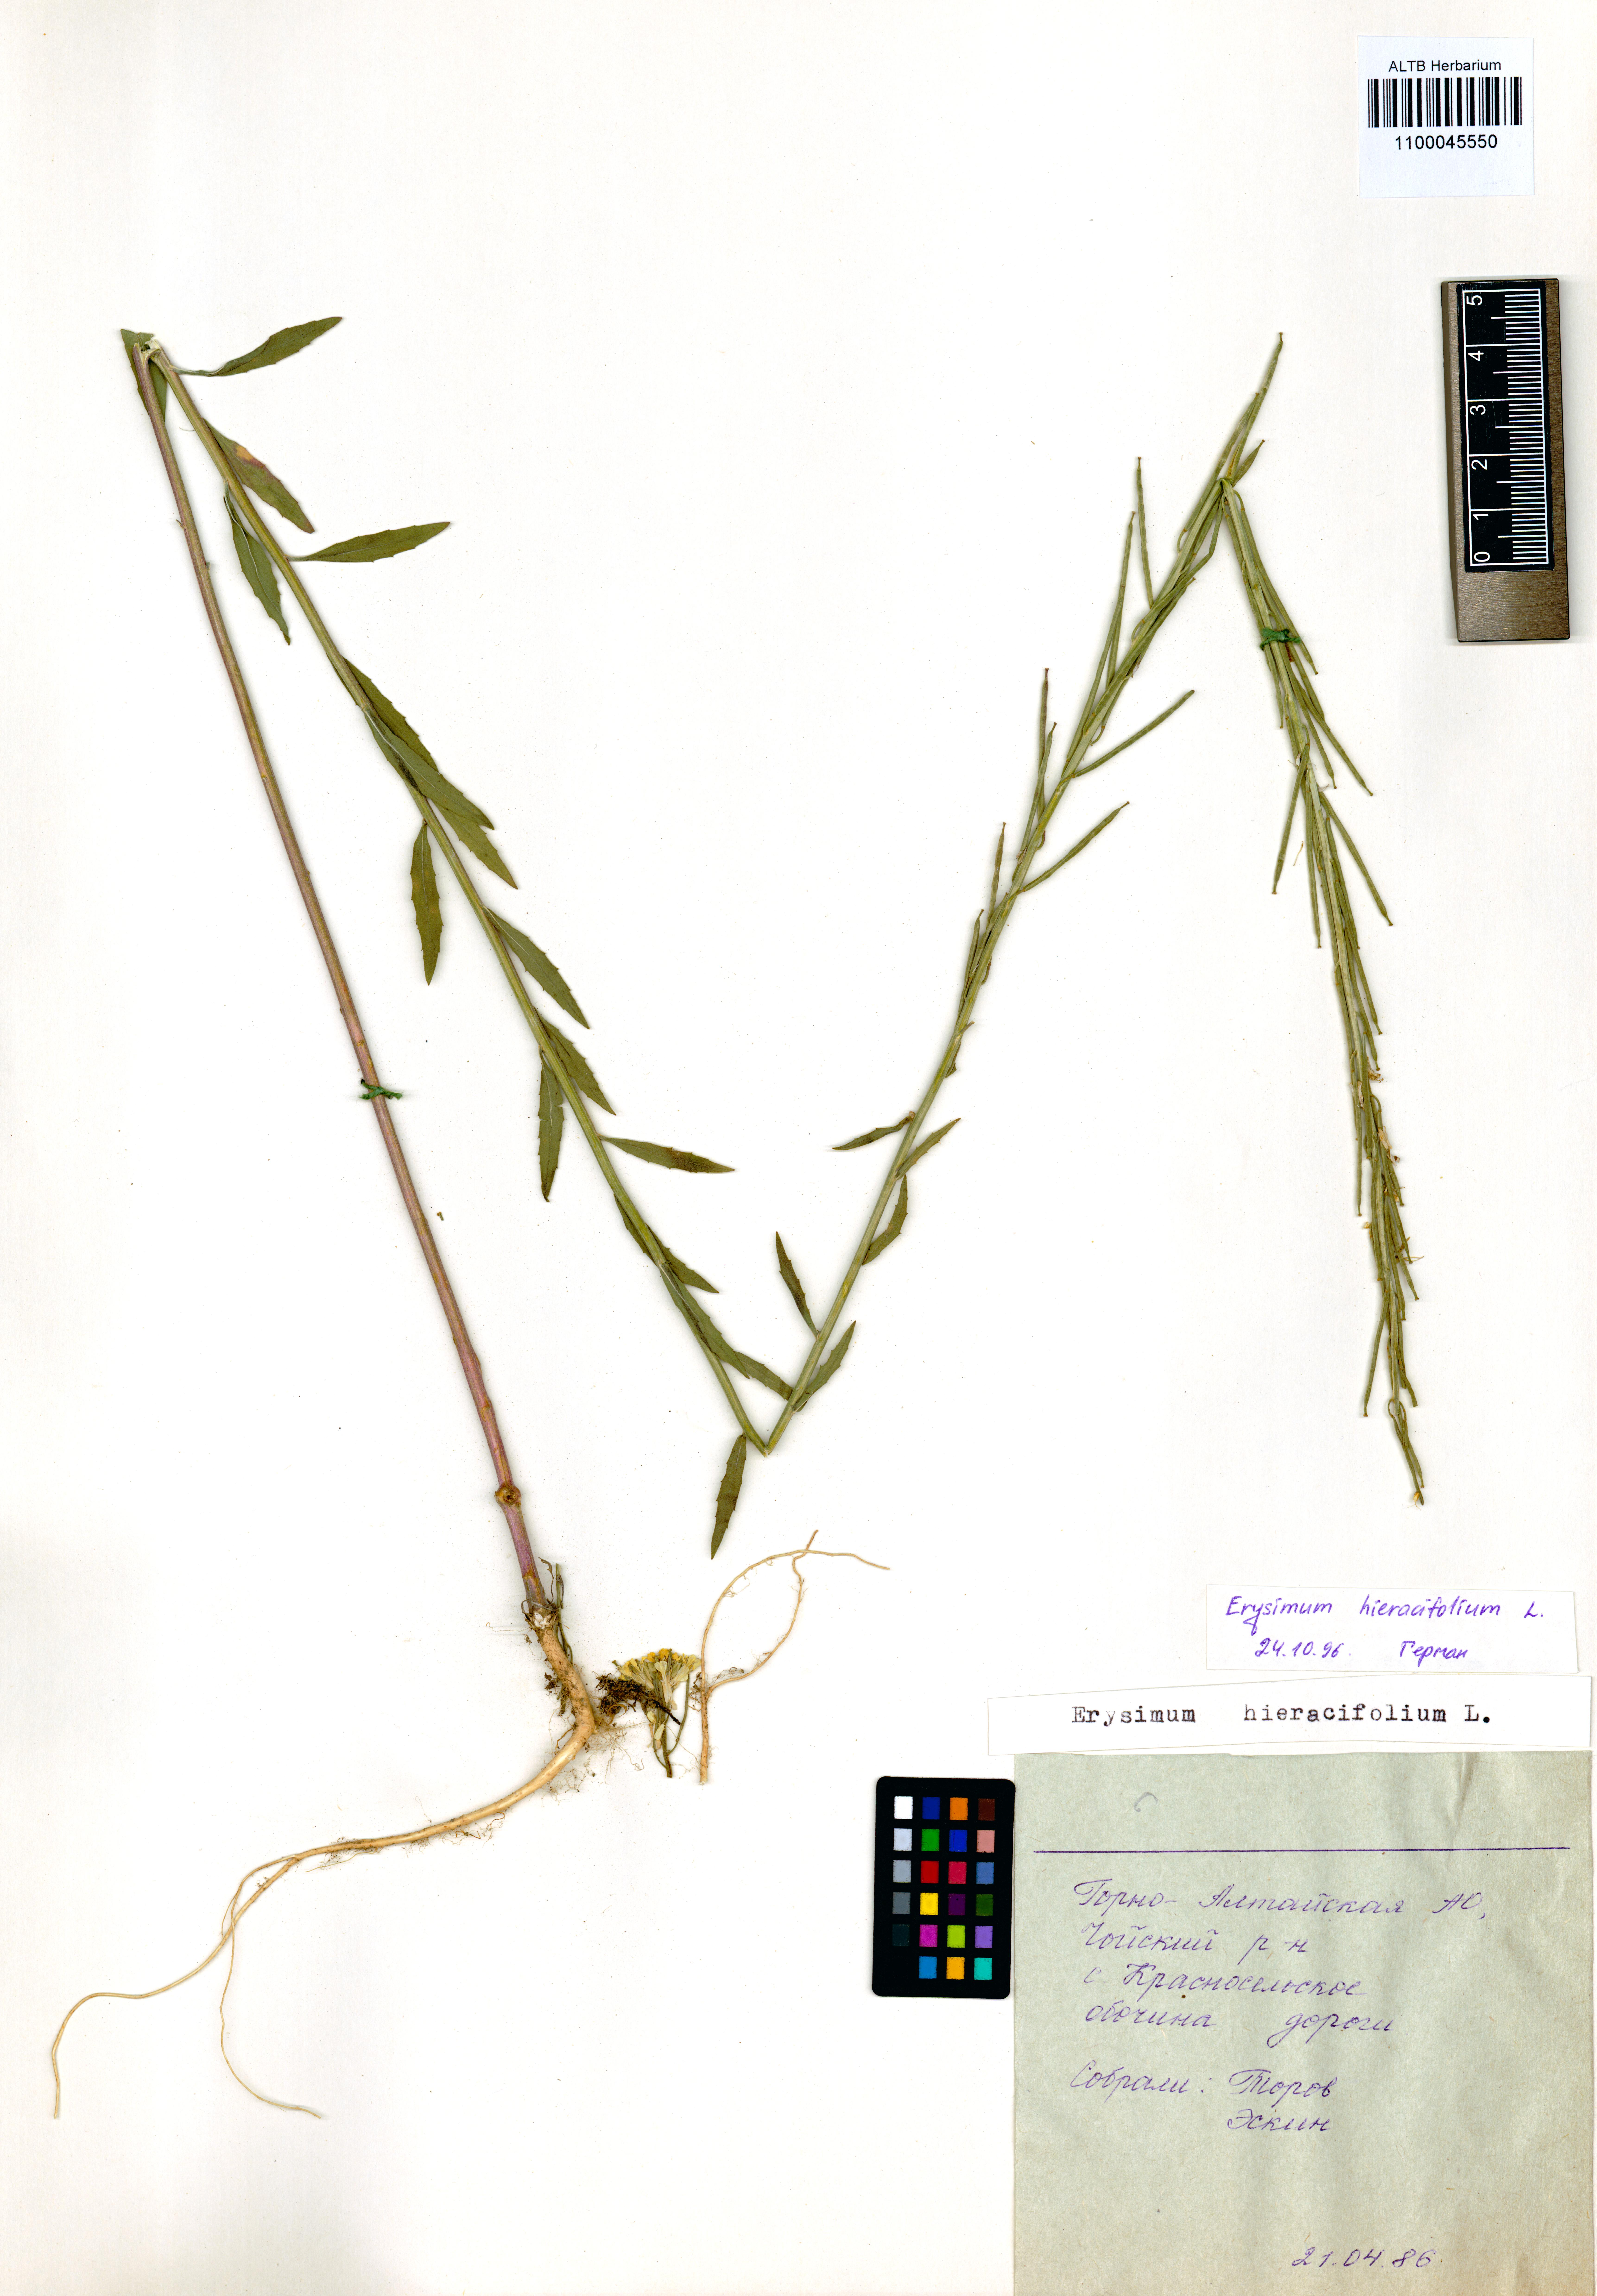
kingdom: Plantae
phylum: Tracheophyta
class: Magnoliopsida
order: Brassicales
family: Brassicaceae
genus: Erysimum
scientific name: Erysimum hieraciifolium
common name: European wallflower
